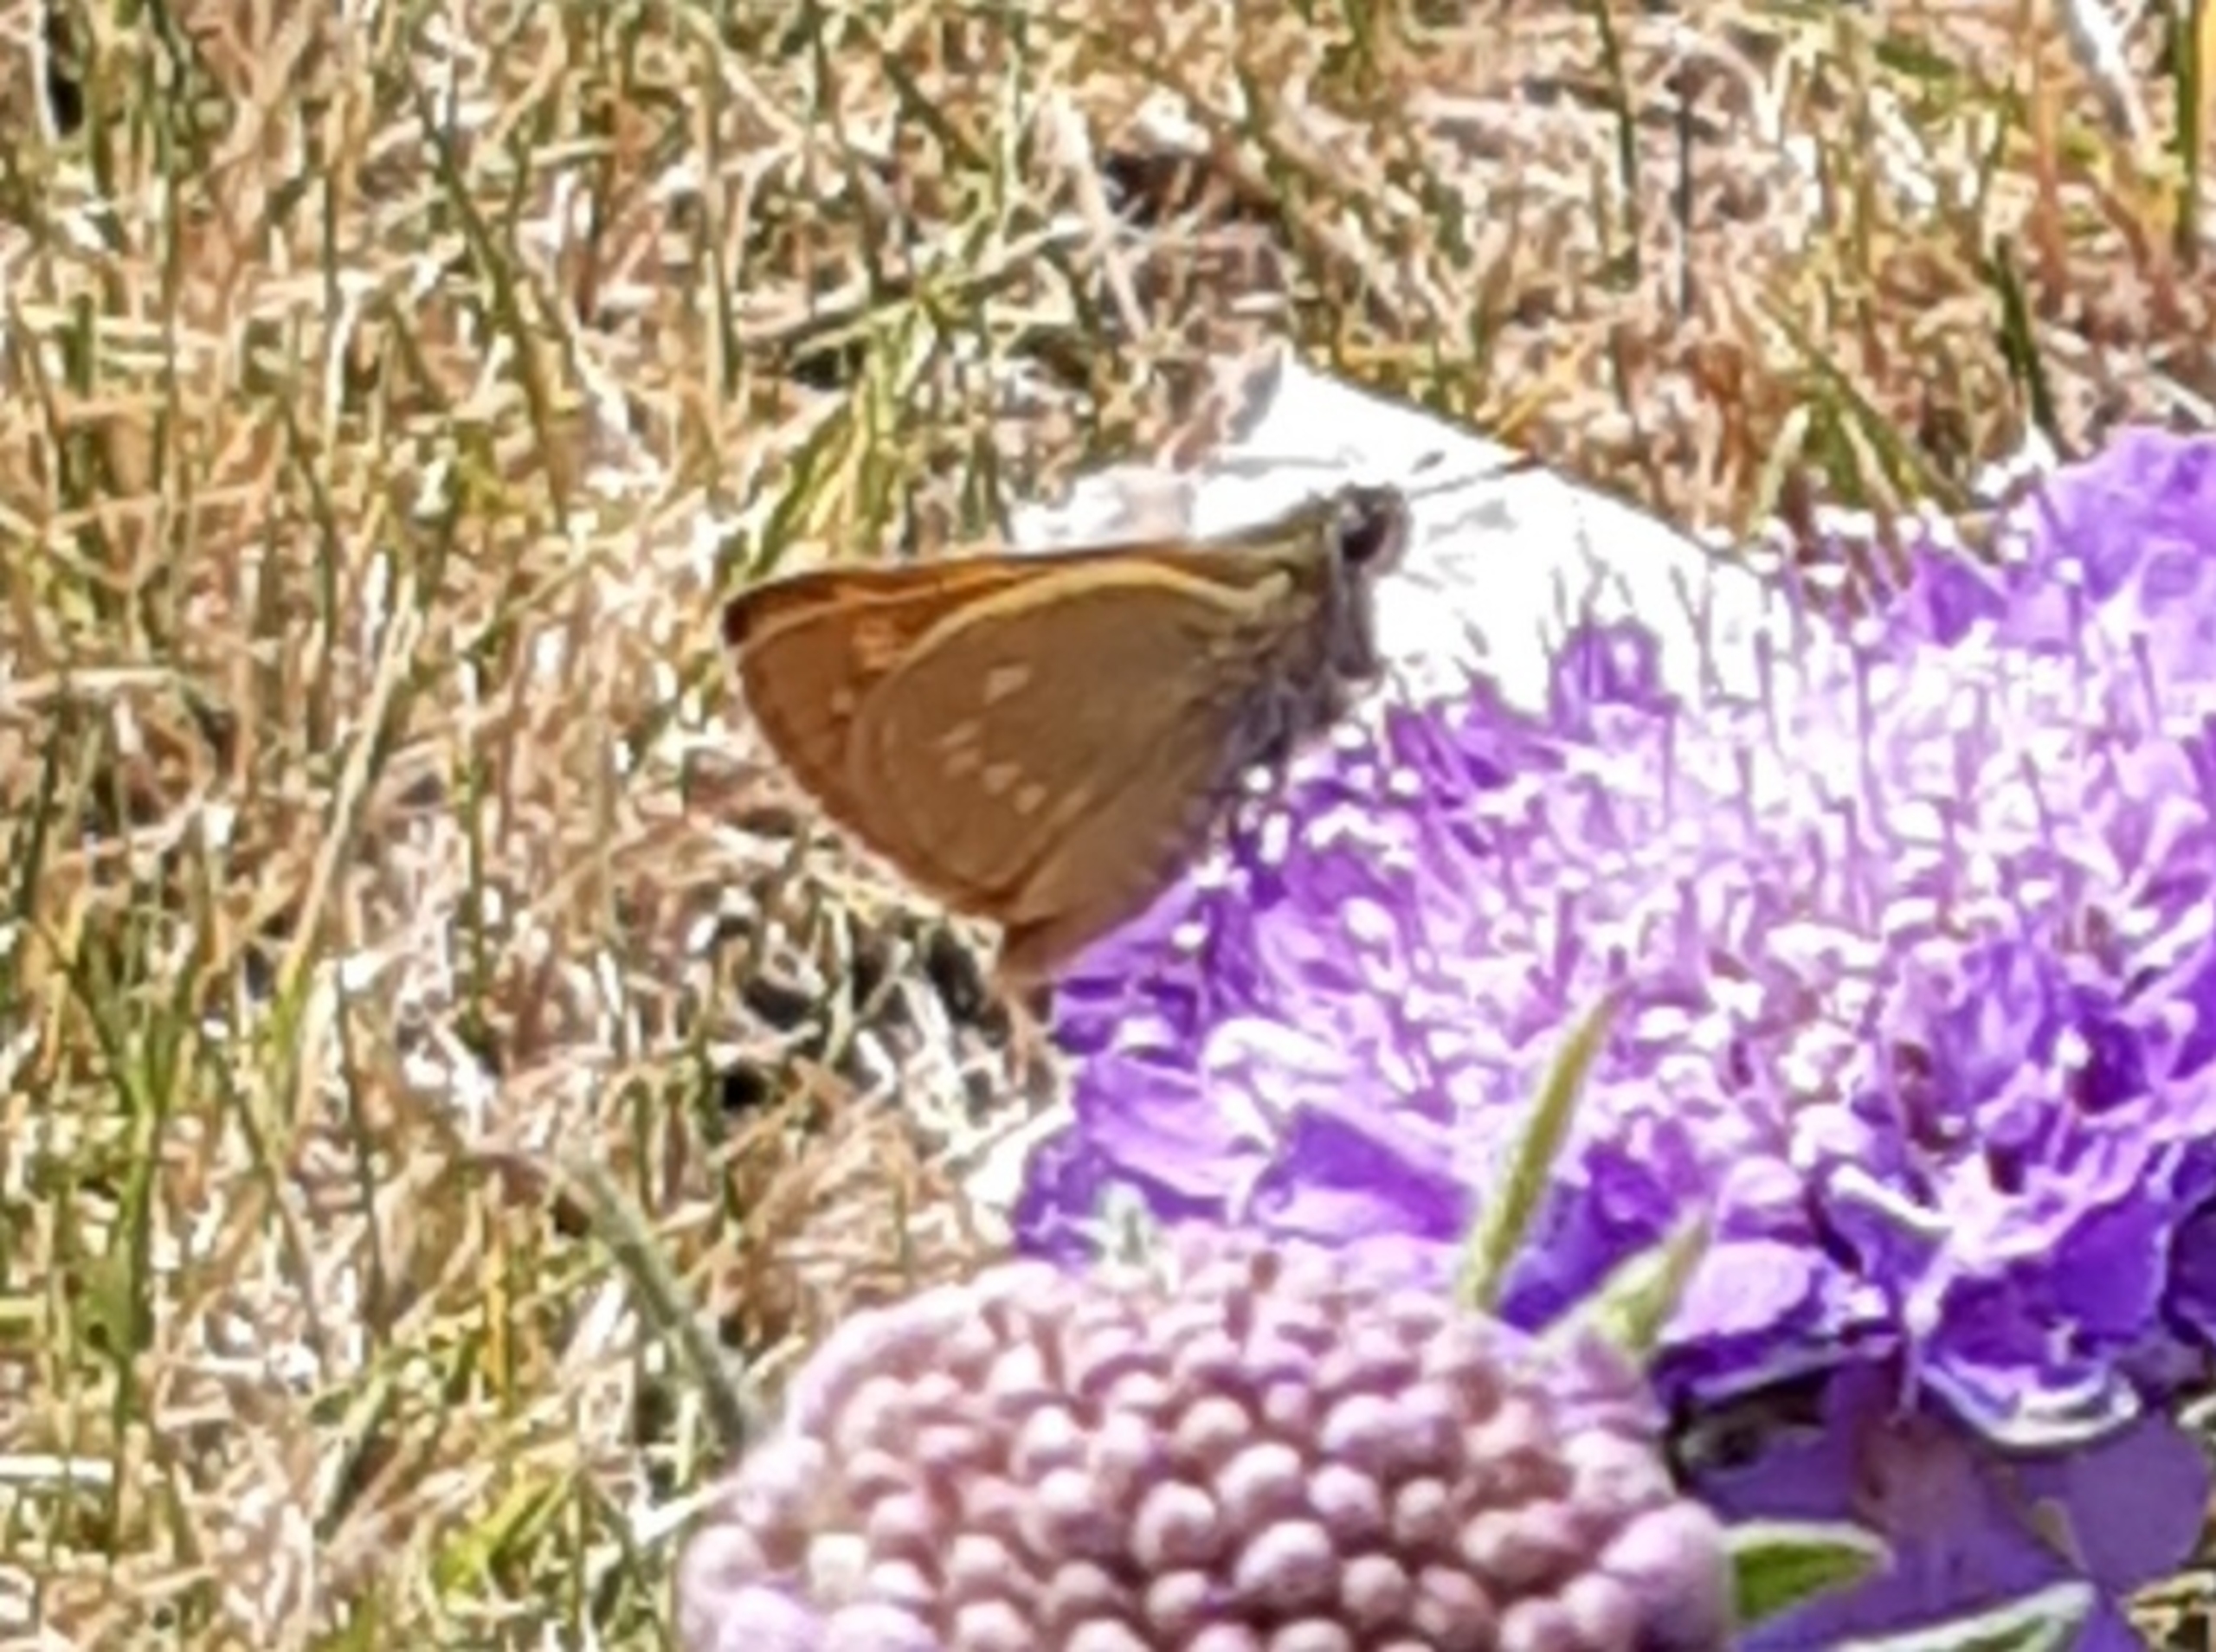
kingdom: Animalia
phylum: Arthropoda
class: Insecta
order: Lepidoptera
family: Hesperiidae
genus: Ochlodes
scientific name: Ochlodes venata
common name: Stor bredpande
